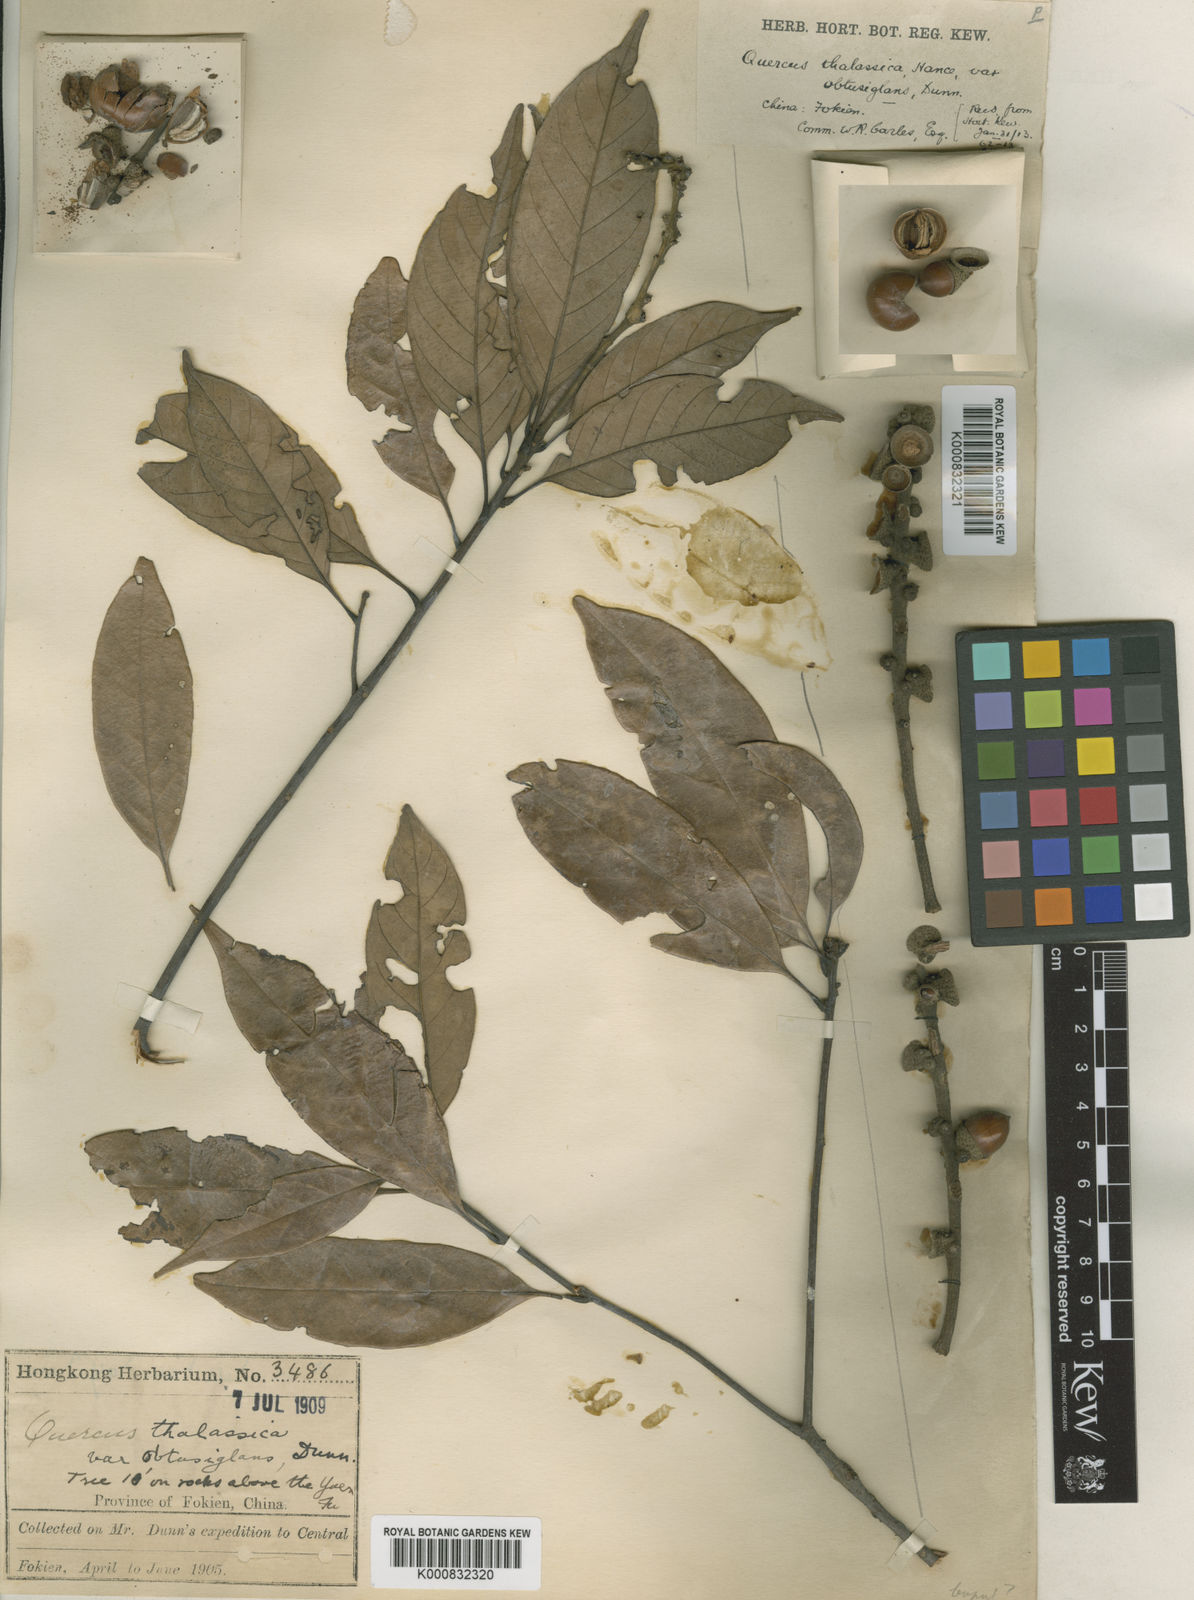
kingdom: Plantae
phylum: Tracheophyta
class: Magnoliopsida
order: Fagales
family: Fagaceae
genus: Lithocarpus
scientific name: Lithocarpus
